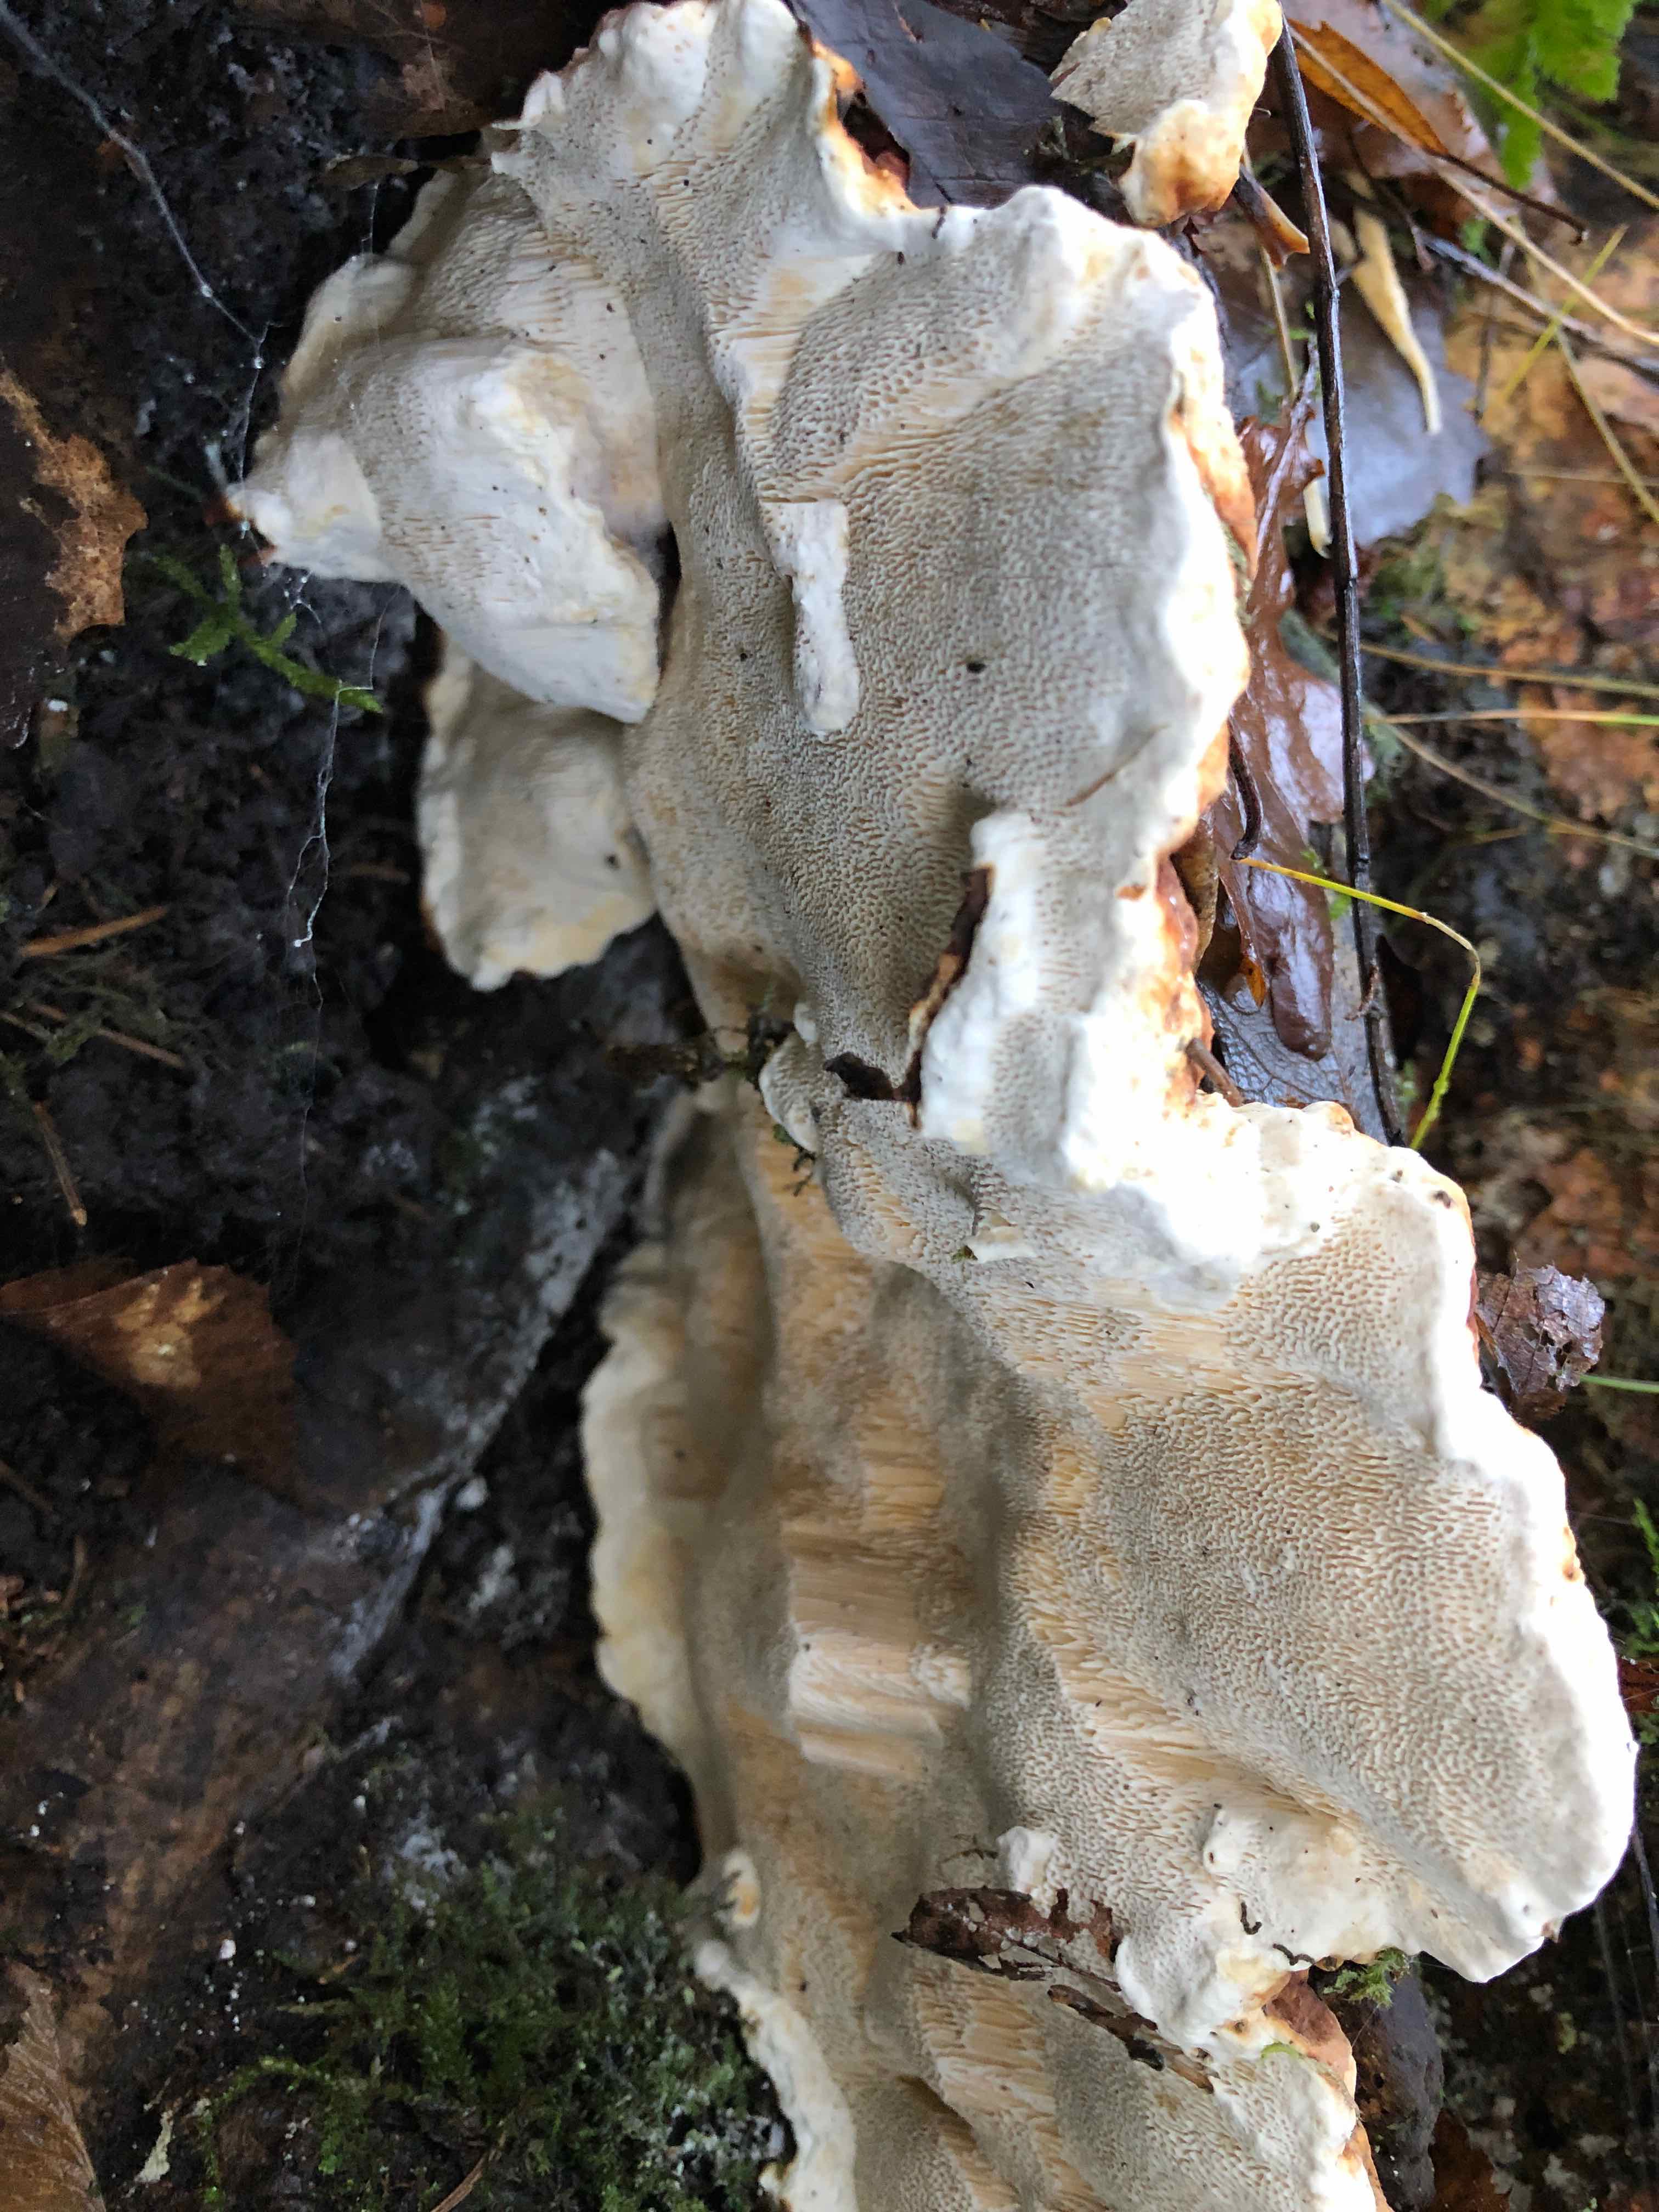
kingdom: Fungi
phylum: Basidiomycota
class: Agaricomycetes
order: Russulales
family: Bondarzewiaceae
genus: Heterobasidion
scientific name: Heterobasidion annosum
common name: almindelig rodfordærver
